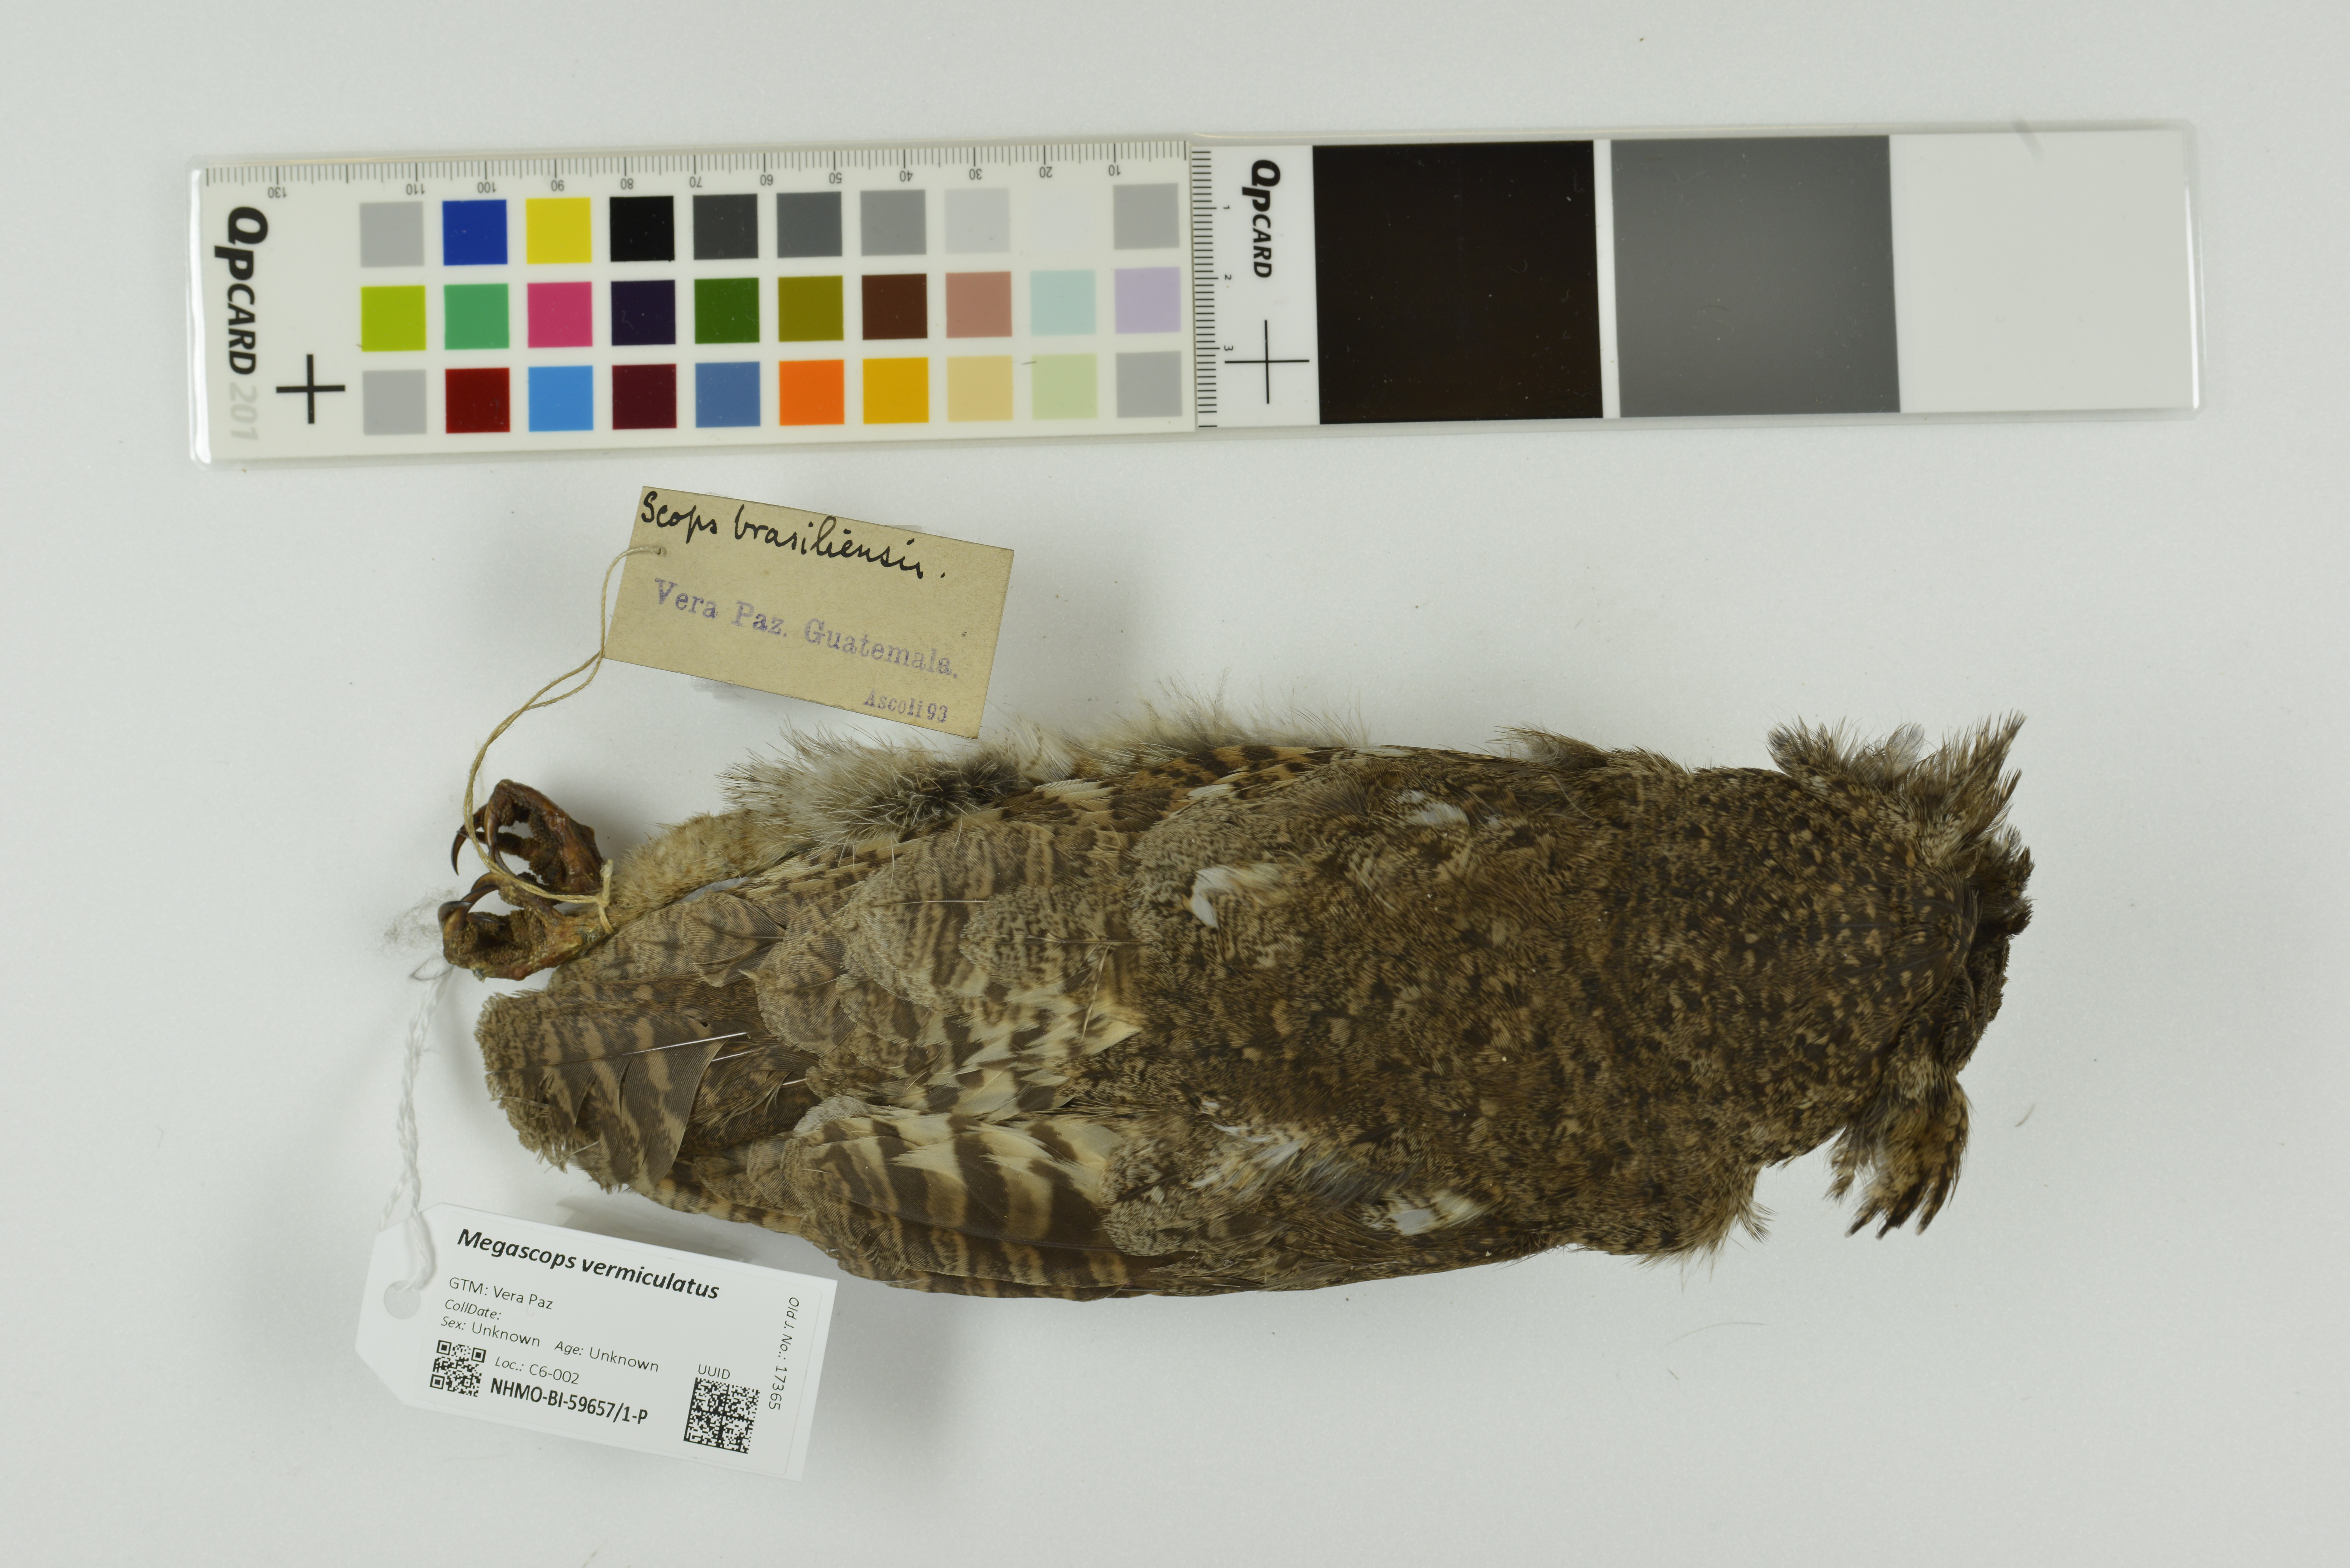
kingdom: Animalia
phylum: Chordata
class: Aves
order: Strigiformes
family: Strigidae
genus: Megascops
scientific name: Megascops vermiculatus
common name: Vermiculated screech owl
